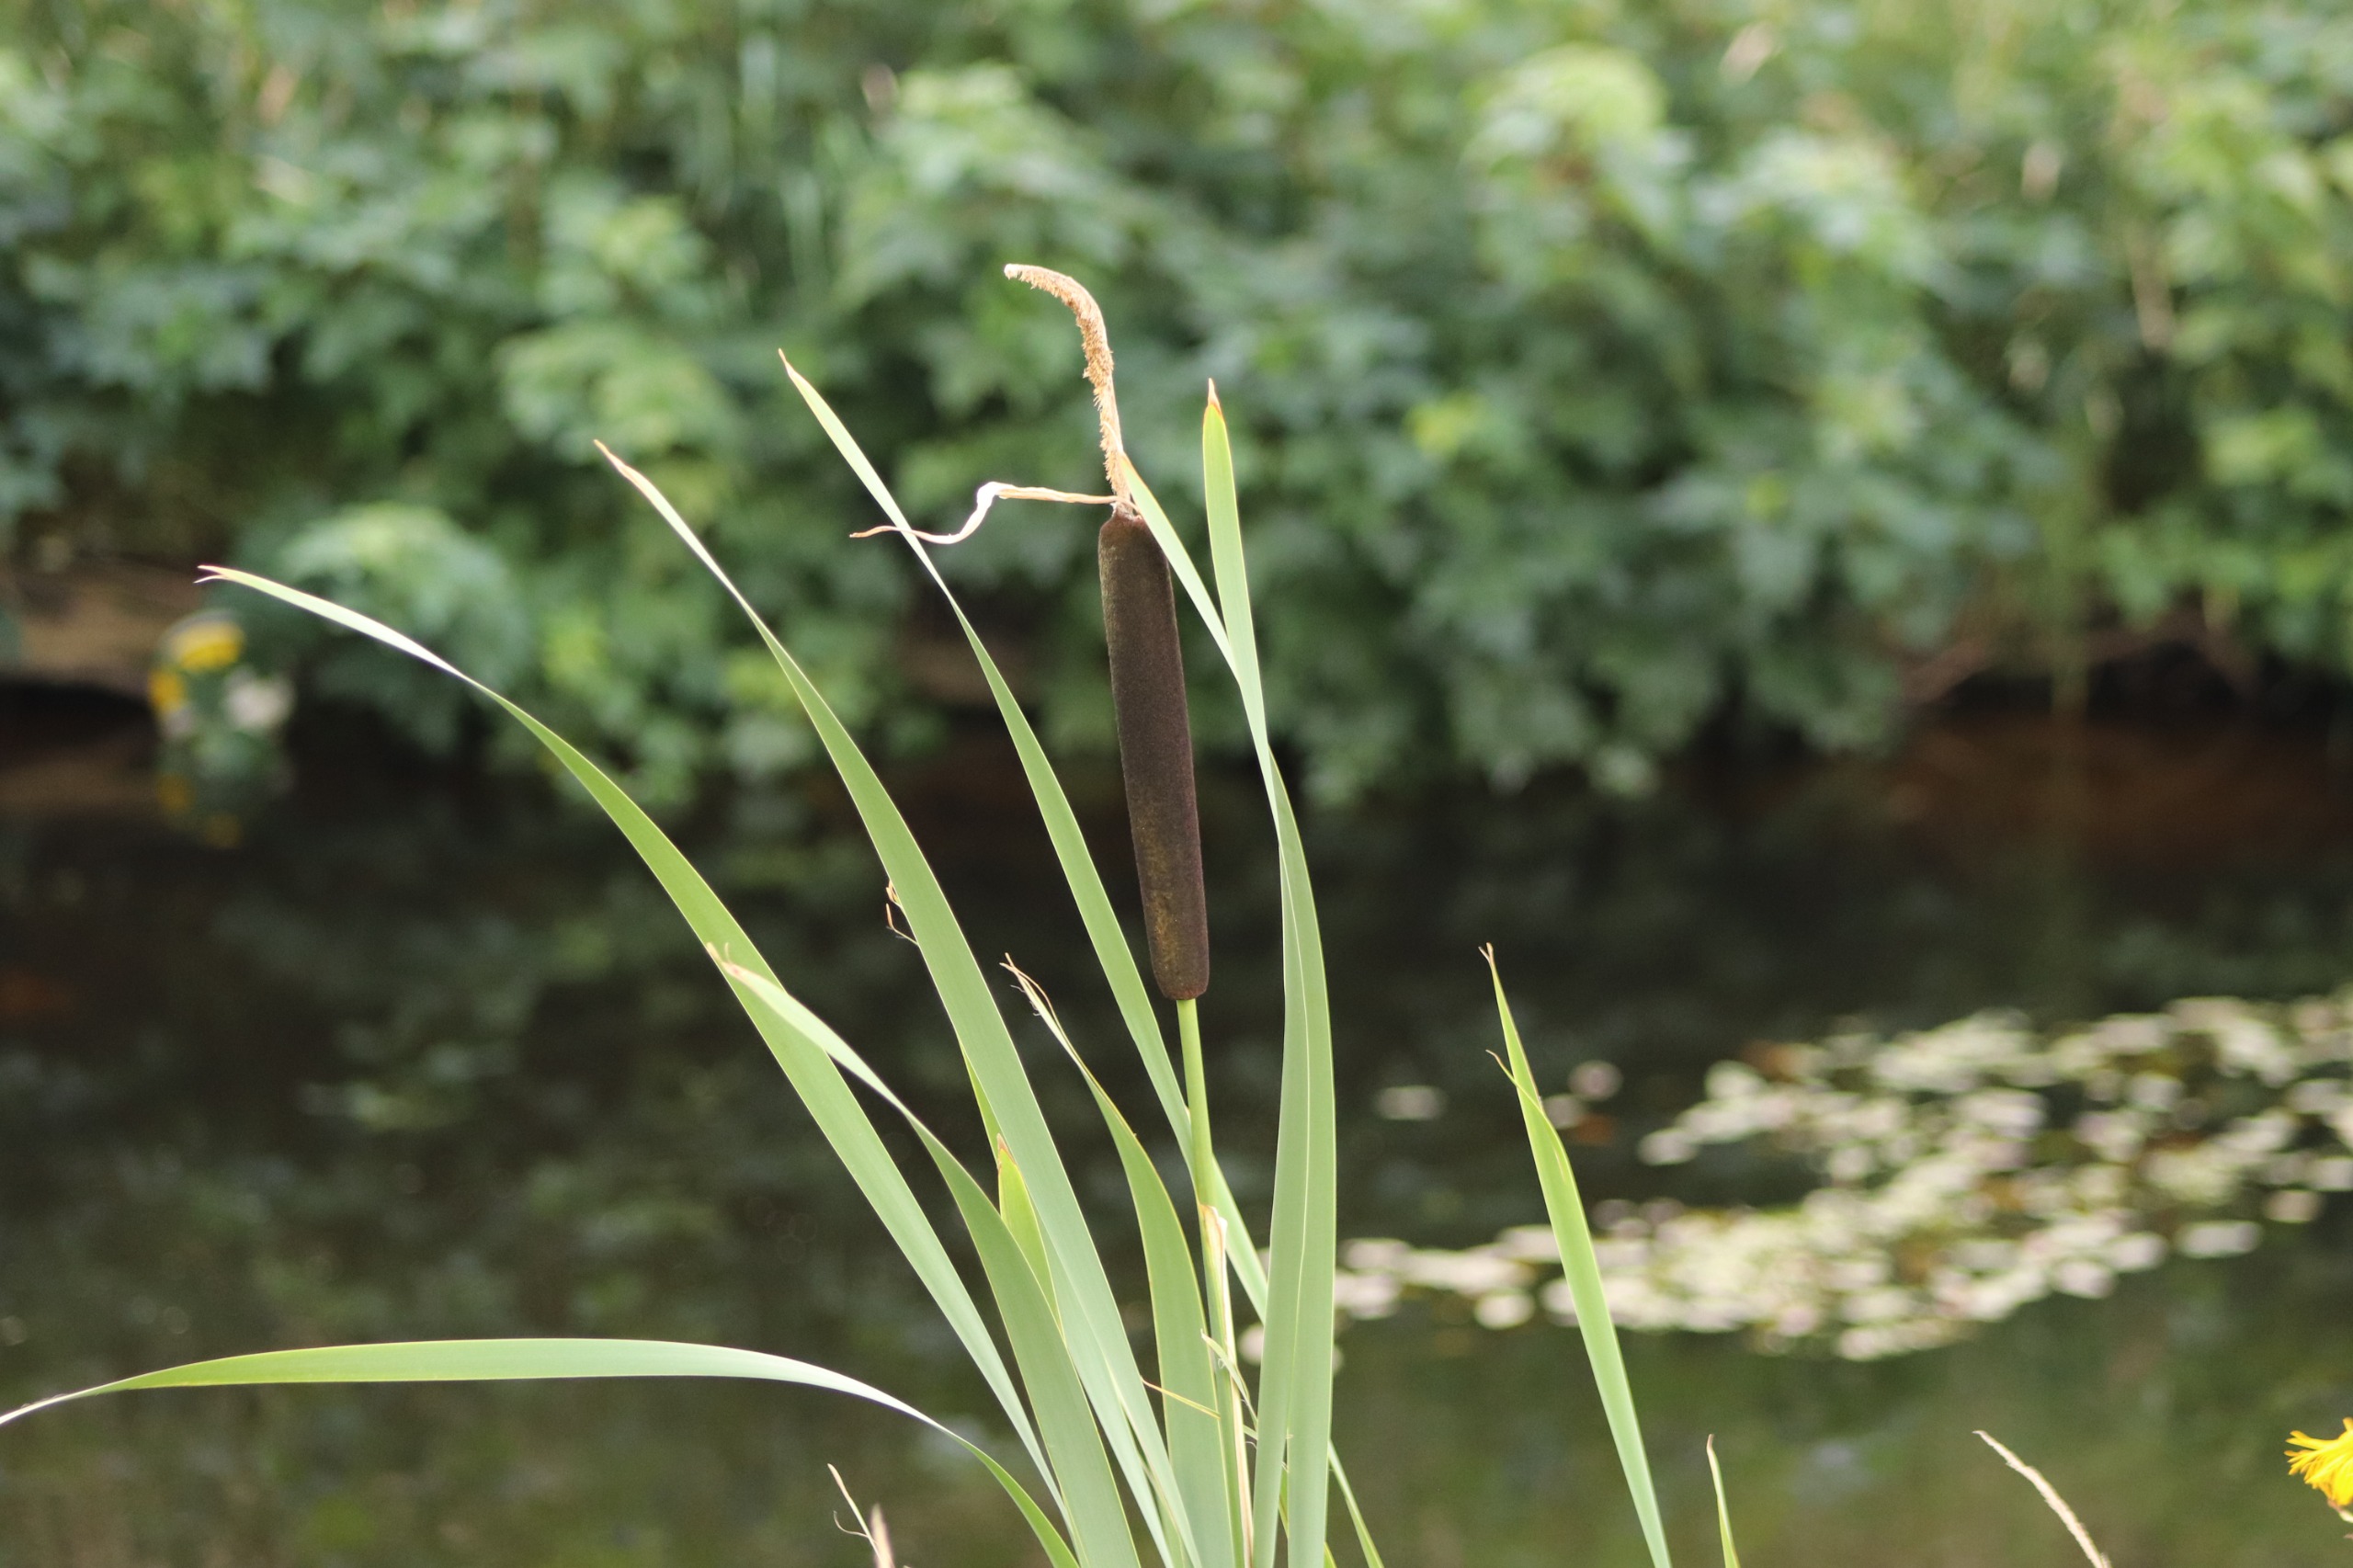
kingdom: Plantae
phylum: Tracheophyta
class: Liliopsida
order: Poales
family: Typhaceae
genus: Typha
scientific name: Typha latifolia
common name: Bredbladet dunhammer
